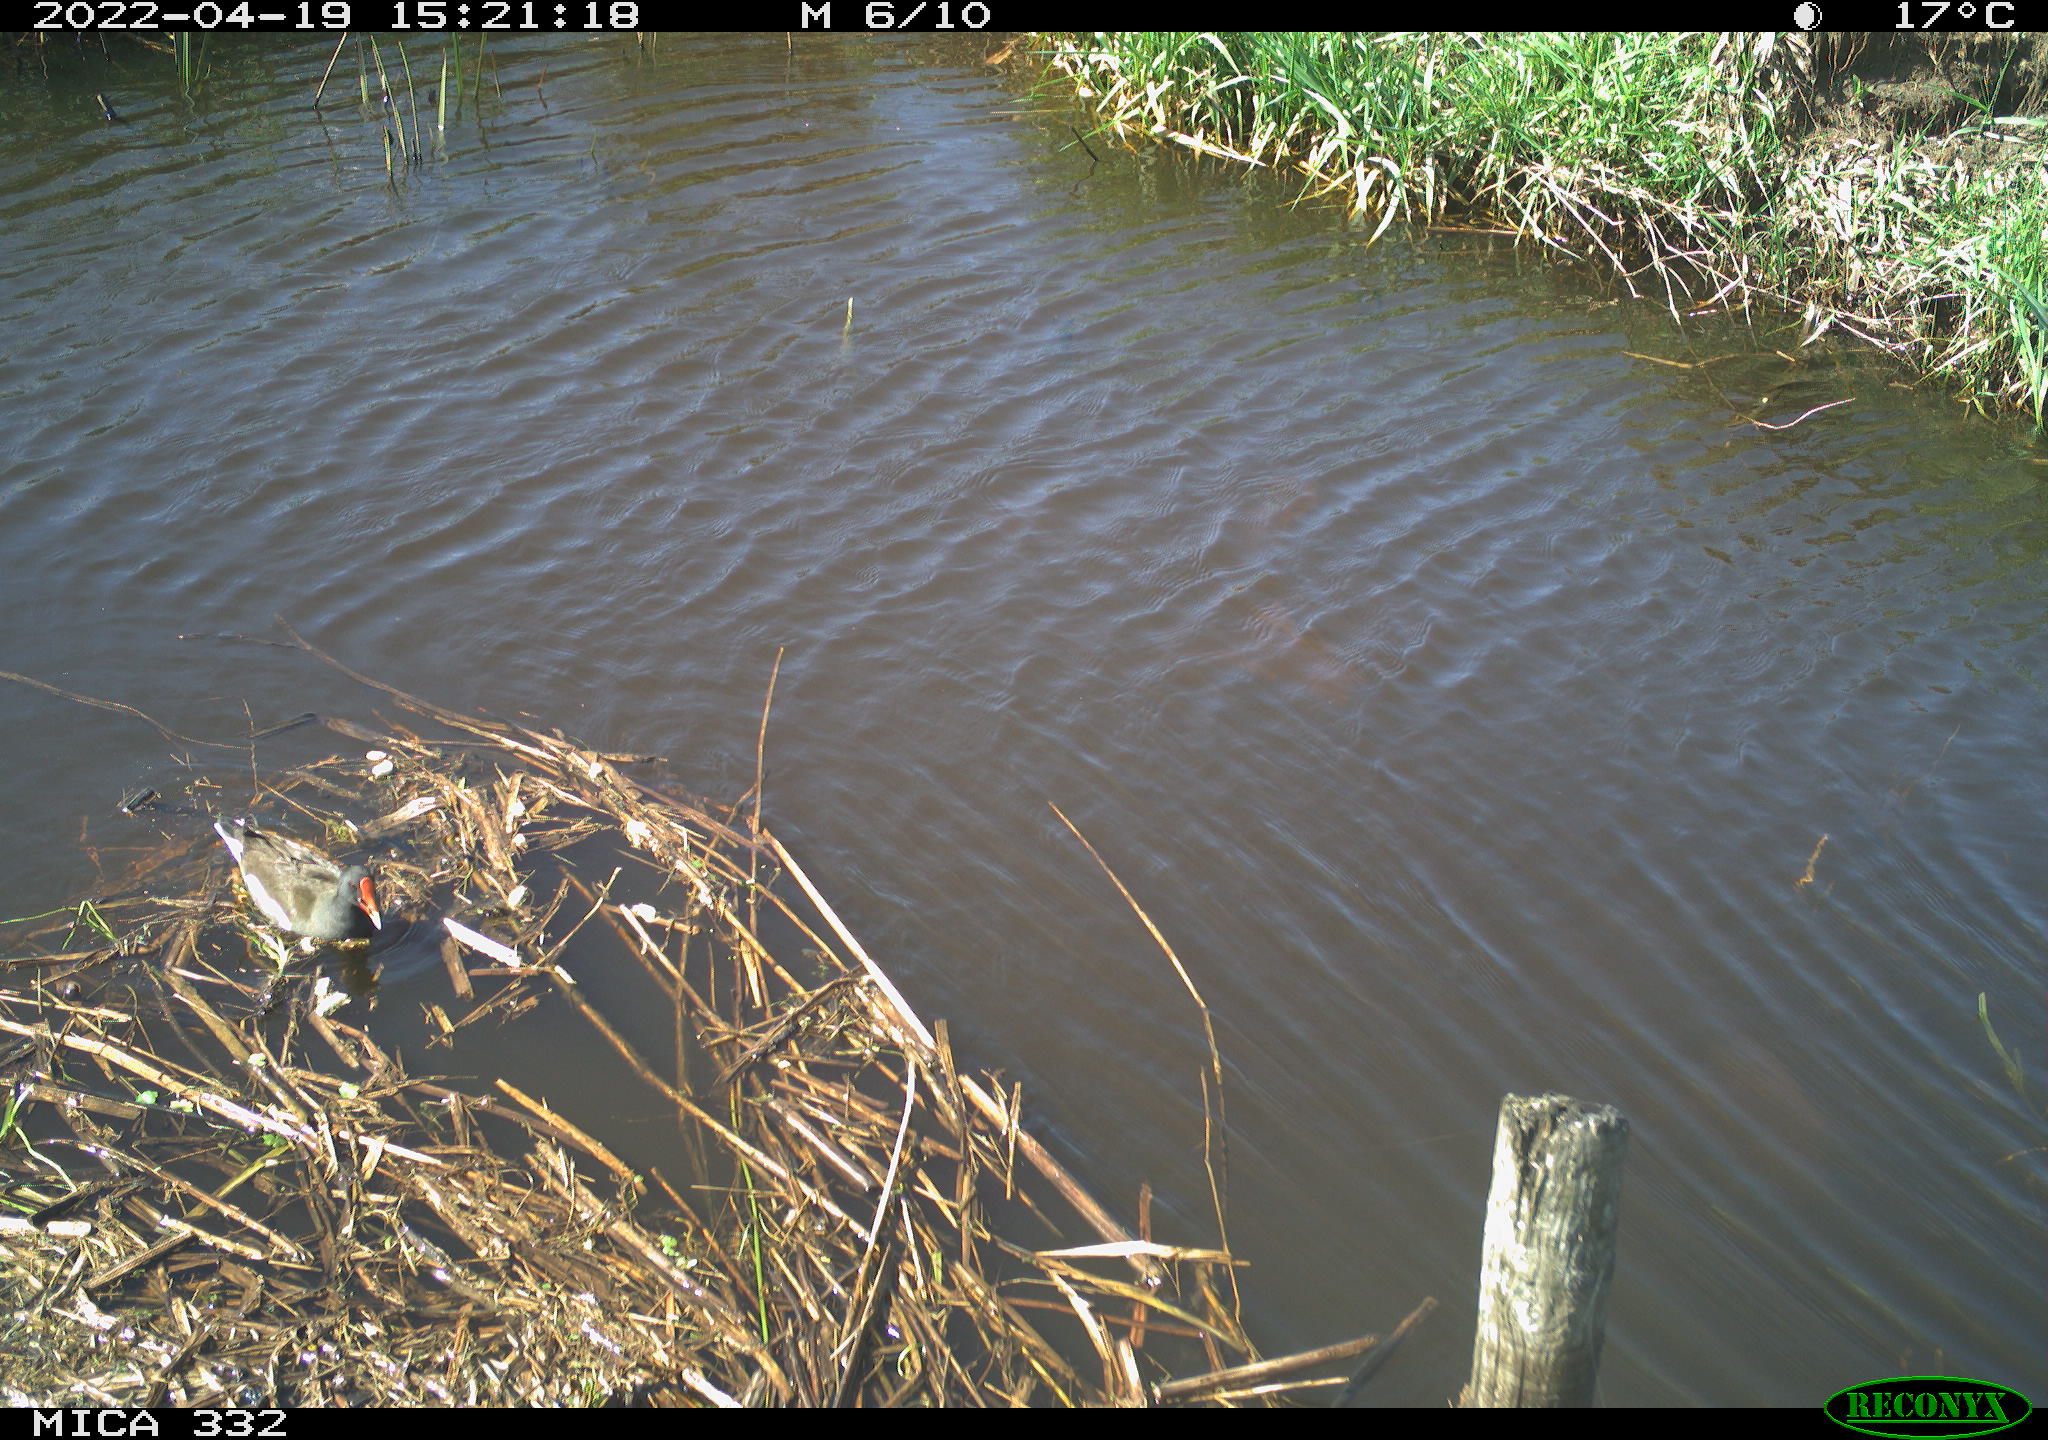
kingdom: Animalia
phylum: Chordata
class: Aves
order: Gruiformes
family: Rallidae
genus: Gallinula
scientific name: Gallinula chloropus
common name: Common moorhen
